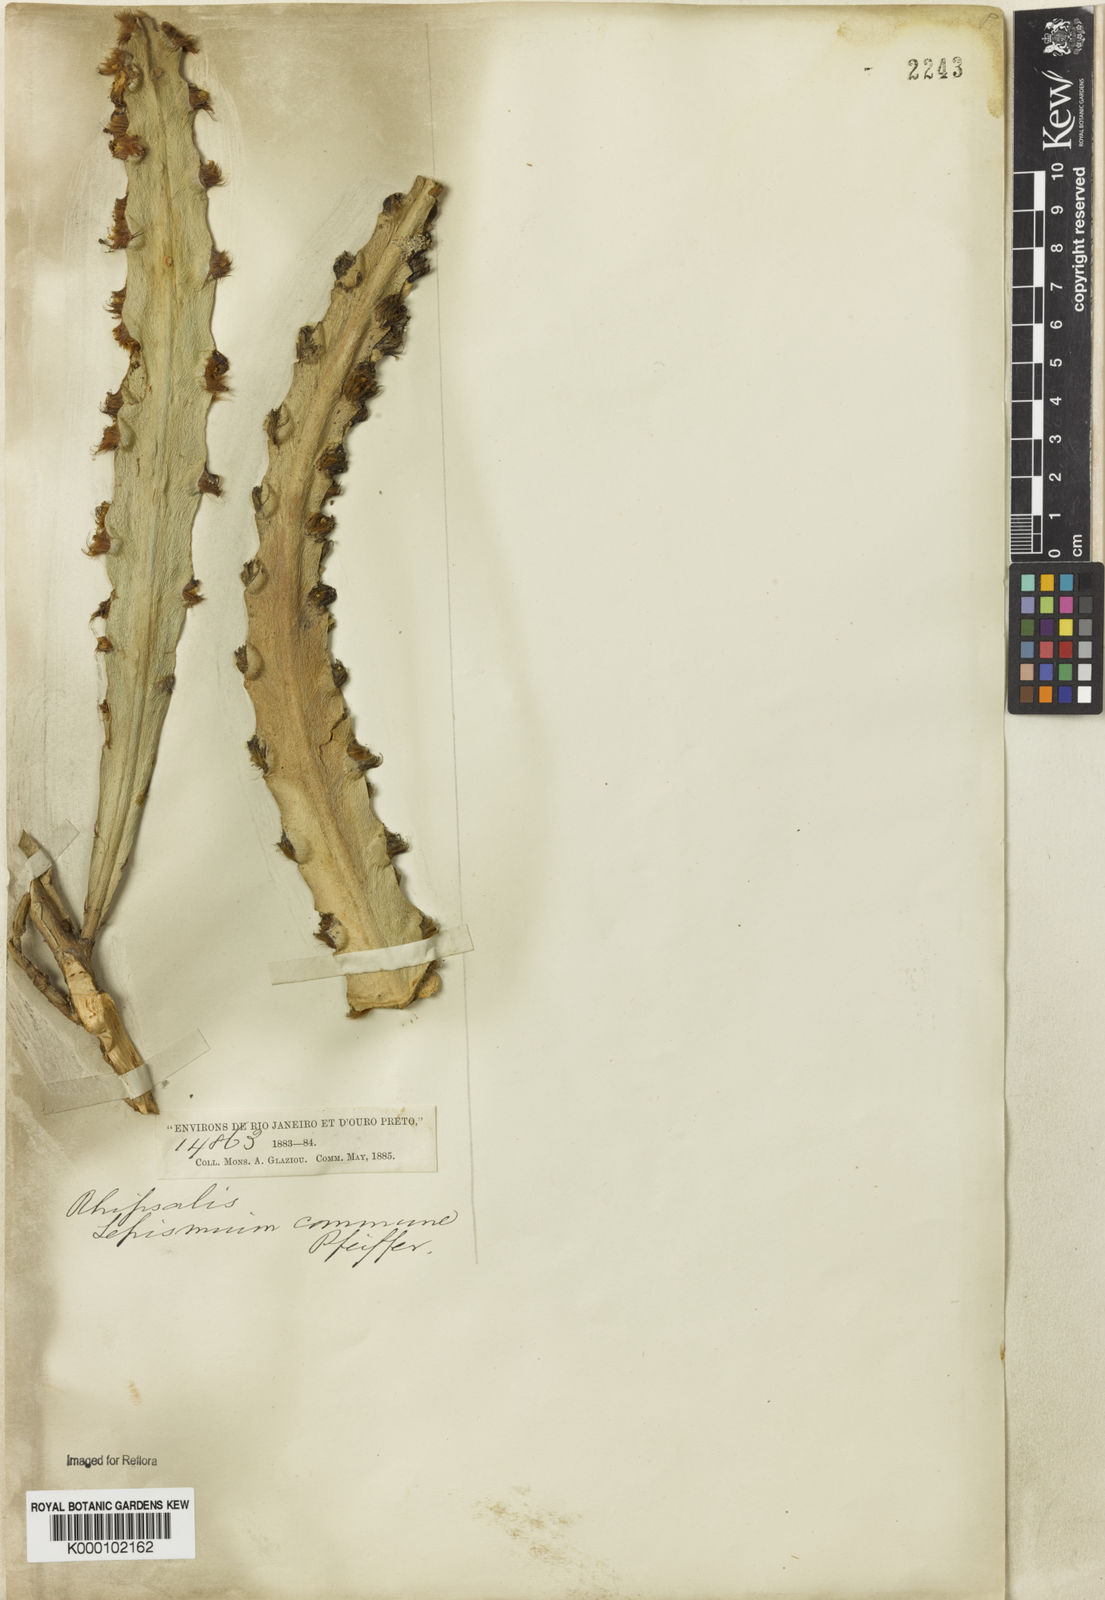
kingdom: Plantae
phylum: Tracheophyta
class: Magnoliopsida
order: Caryophyllales
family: Cactaceae
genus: Lepismium
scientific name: Lepismium cruciforme
